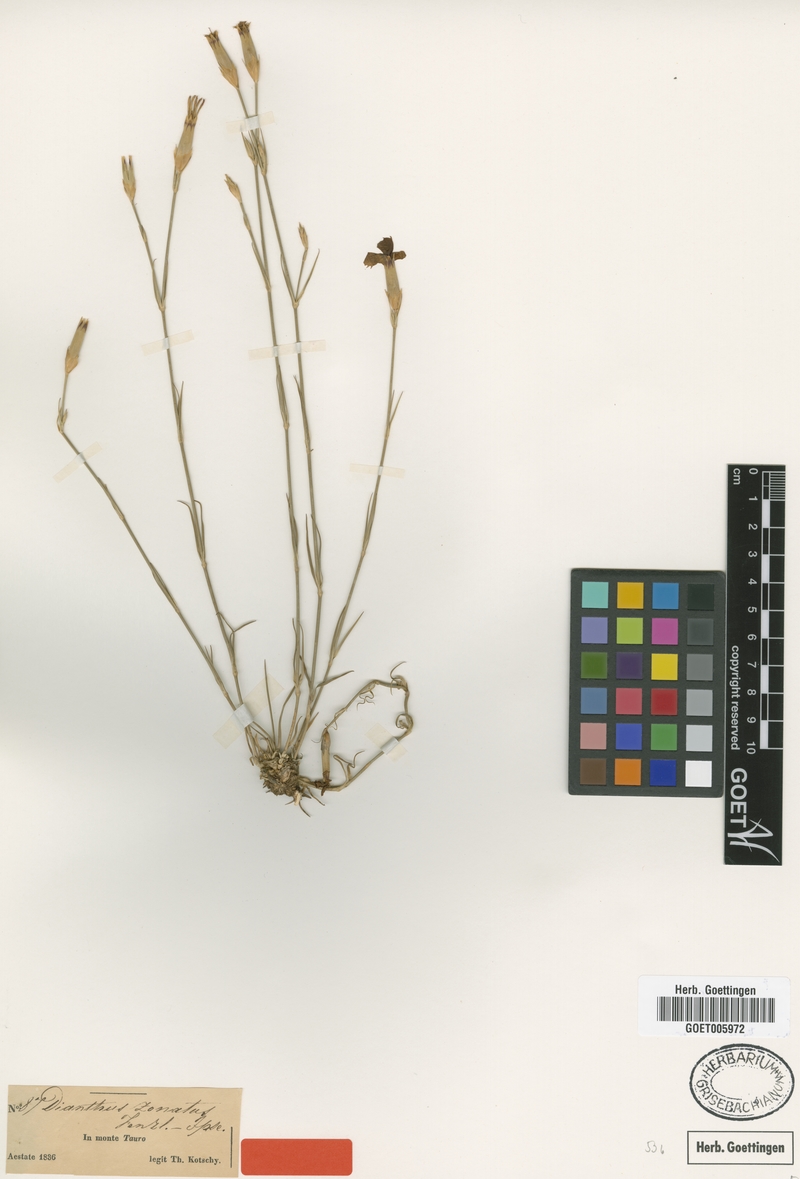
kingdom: Plantae
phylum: Tracheophyta
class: Magnoliopsida
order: Caryophyllales
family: Caryophyllaceae
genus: Dianthus
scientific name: Dianthus zonatus
